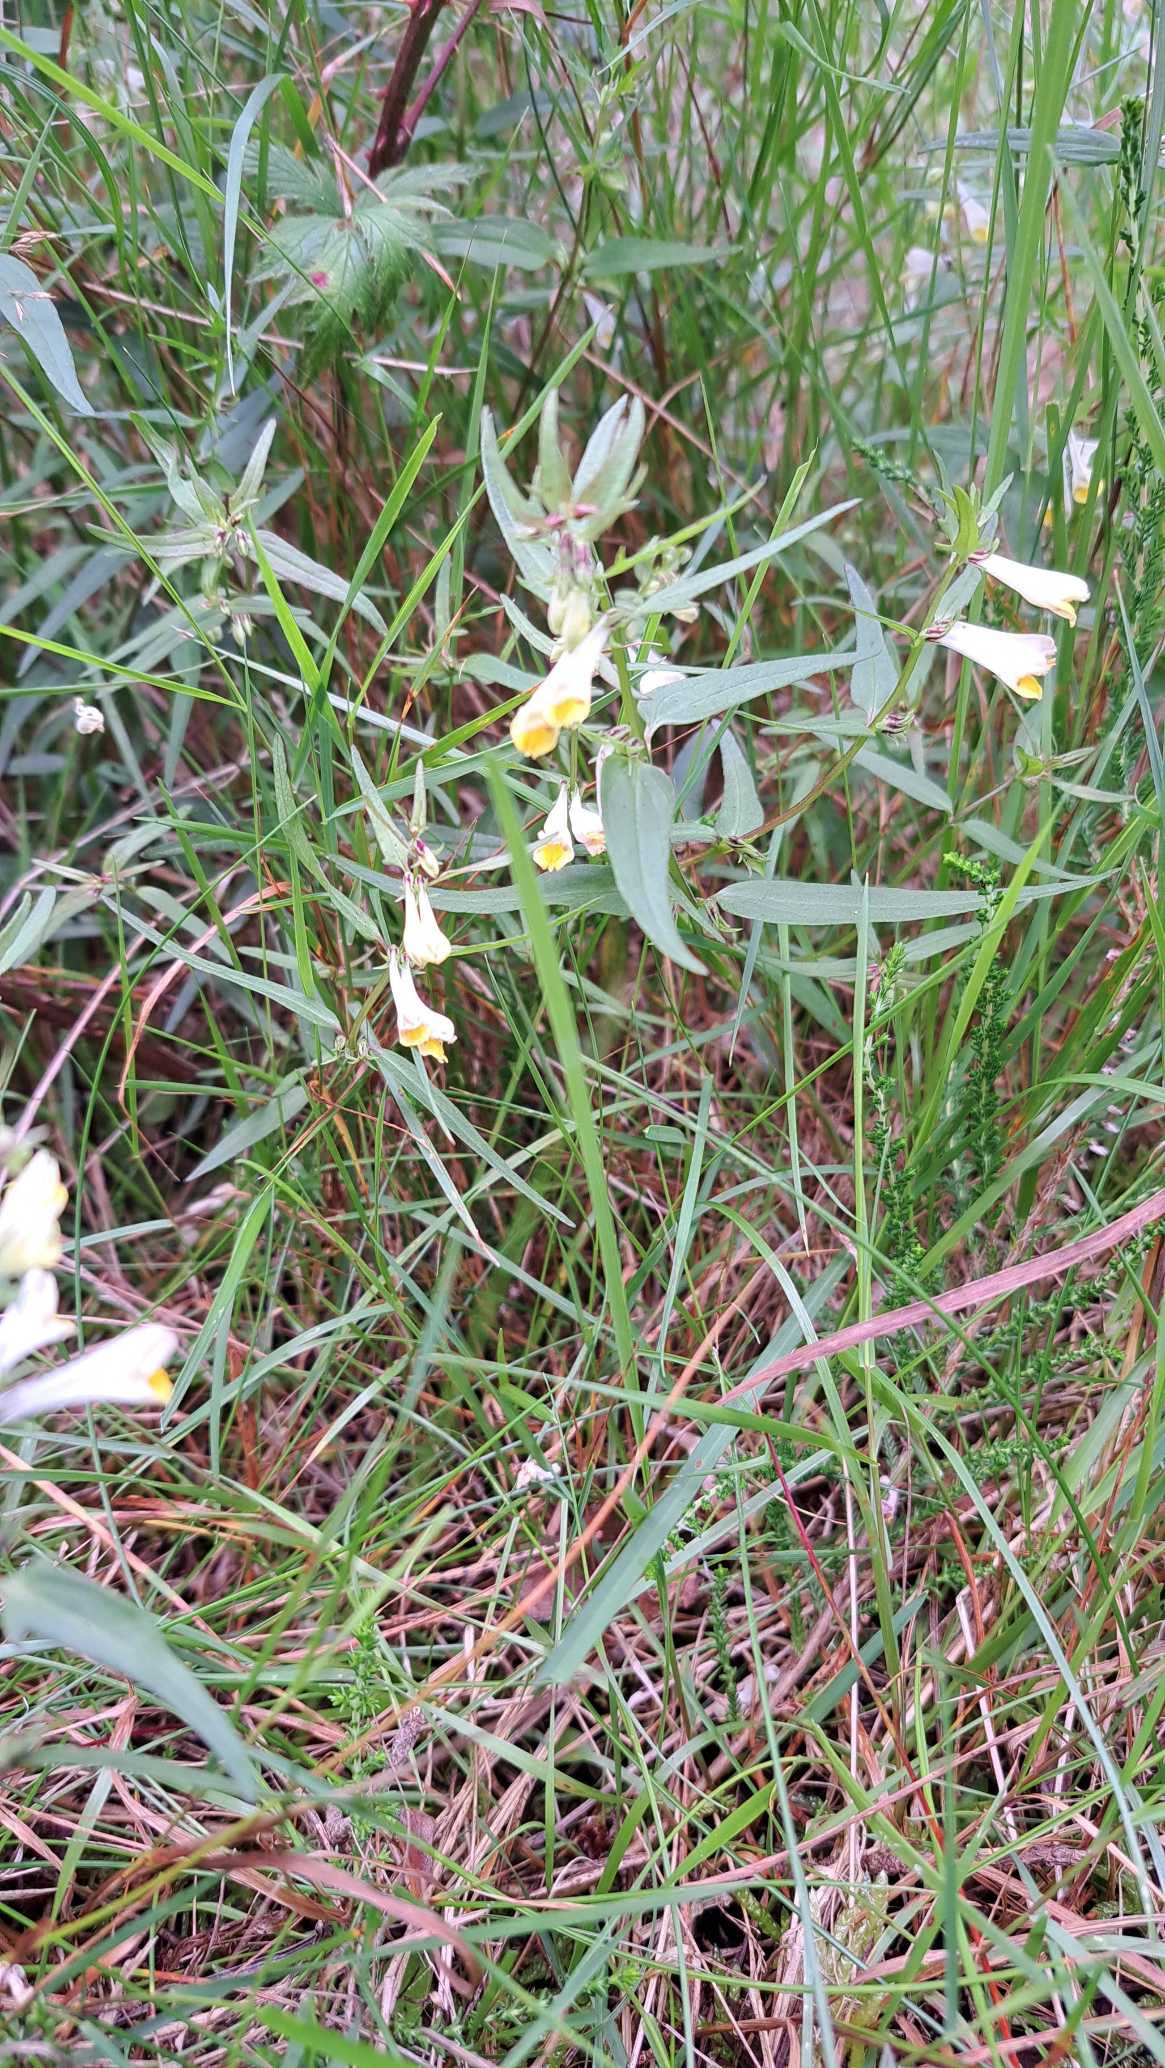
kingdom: Plantae
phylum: Tracheophyta
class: Magnoliopsida
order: Lamiales
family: Orobanchaceae
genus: Melampyrum
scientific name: Melampyrum pratense
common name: Almindelig kohvede
